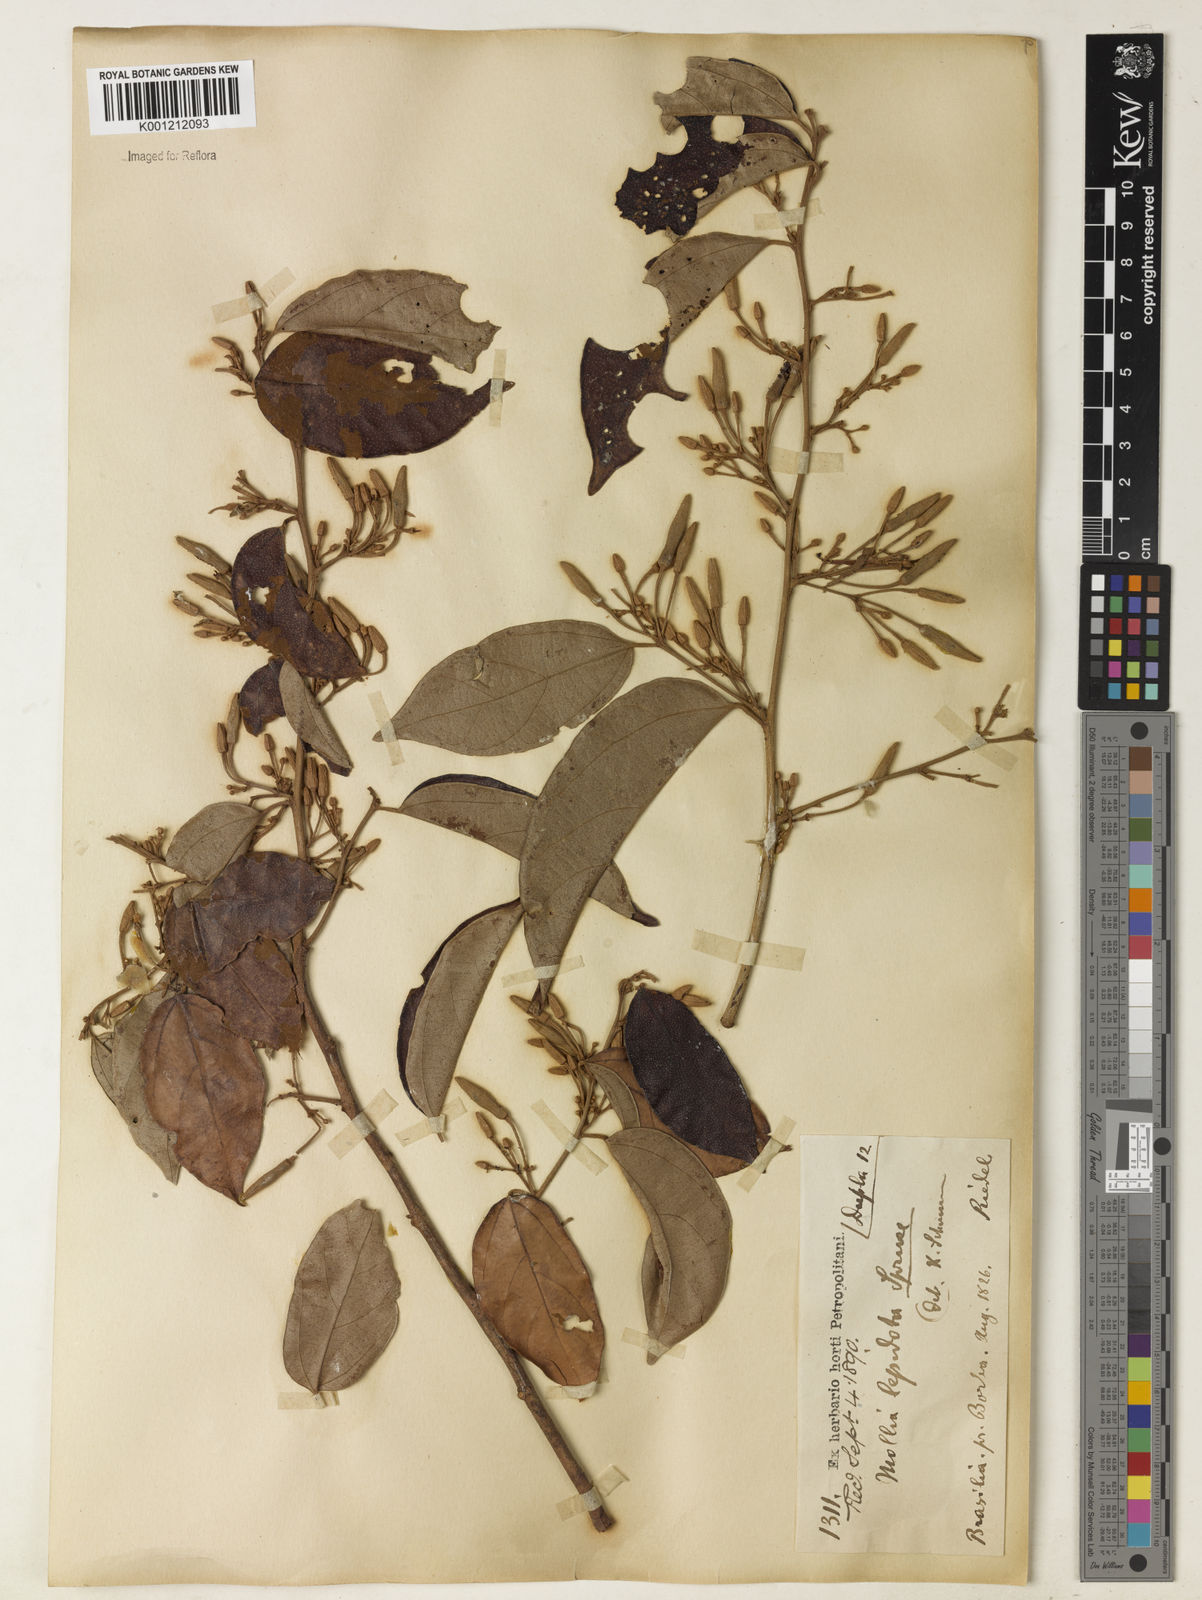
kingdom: Plantae
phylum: Tracheophyta
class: Magnoliopsida
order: Malvales
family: Malvaceae
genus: Mollia
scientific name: Mollia lepidota
